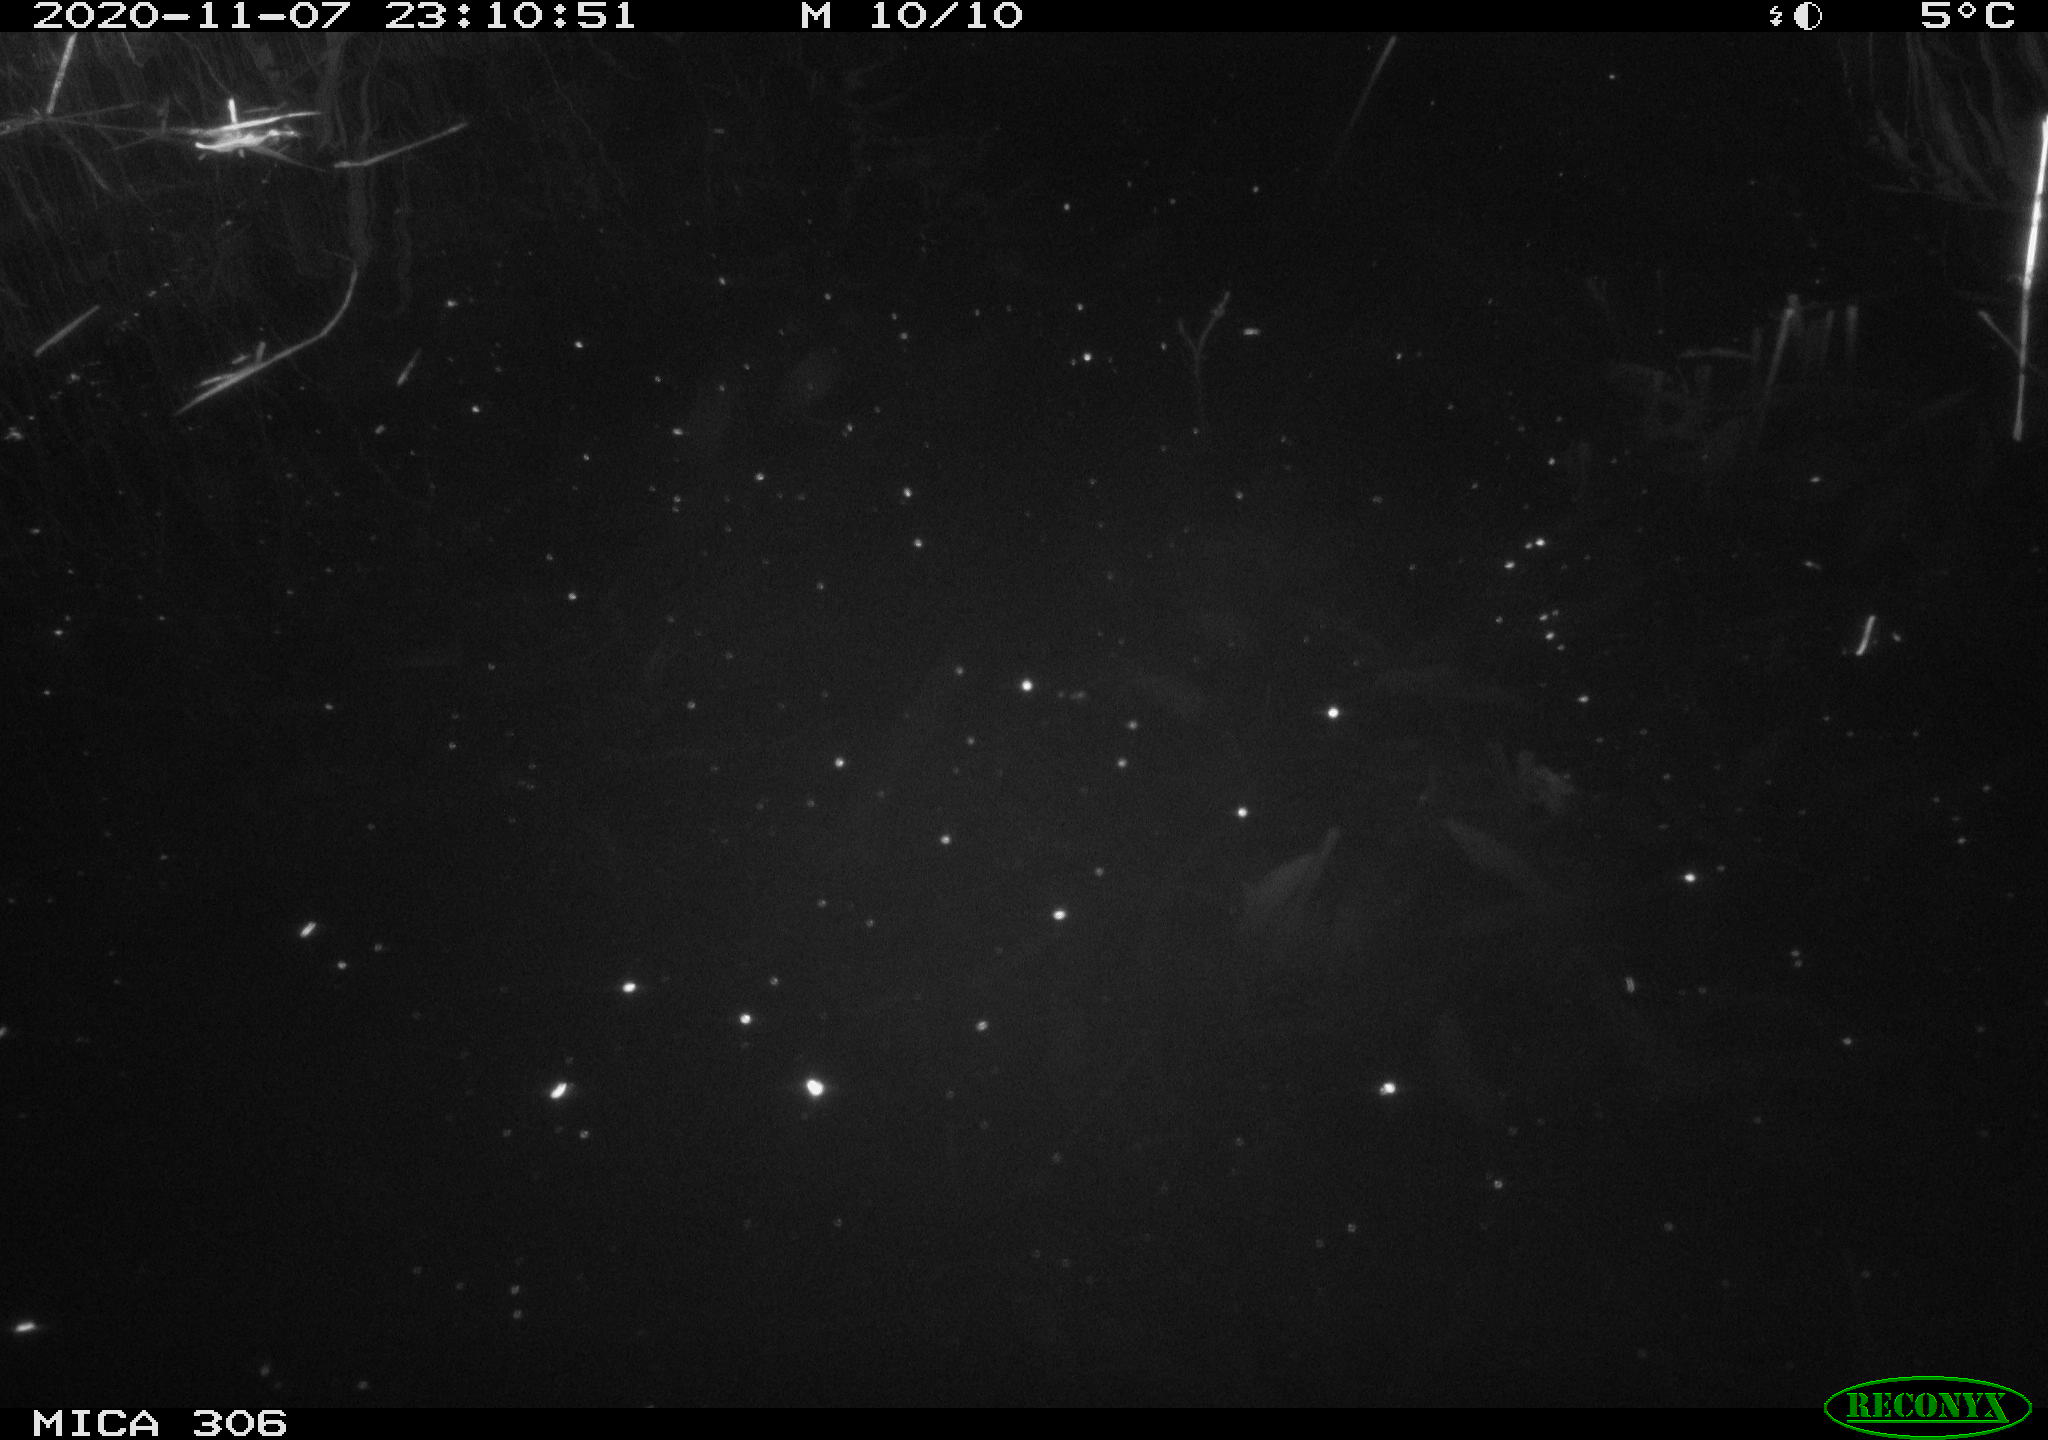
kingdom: Animalia
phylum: Chordata
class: Mammalia
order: Rodentia
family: Cricetidae
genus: Ondatra
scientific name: Ondatra zibethicus
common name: Muskrat
